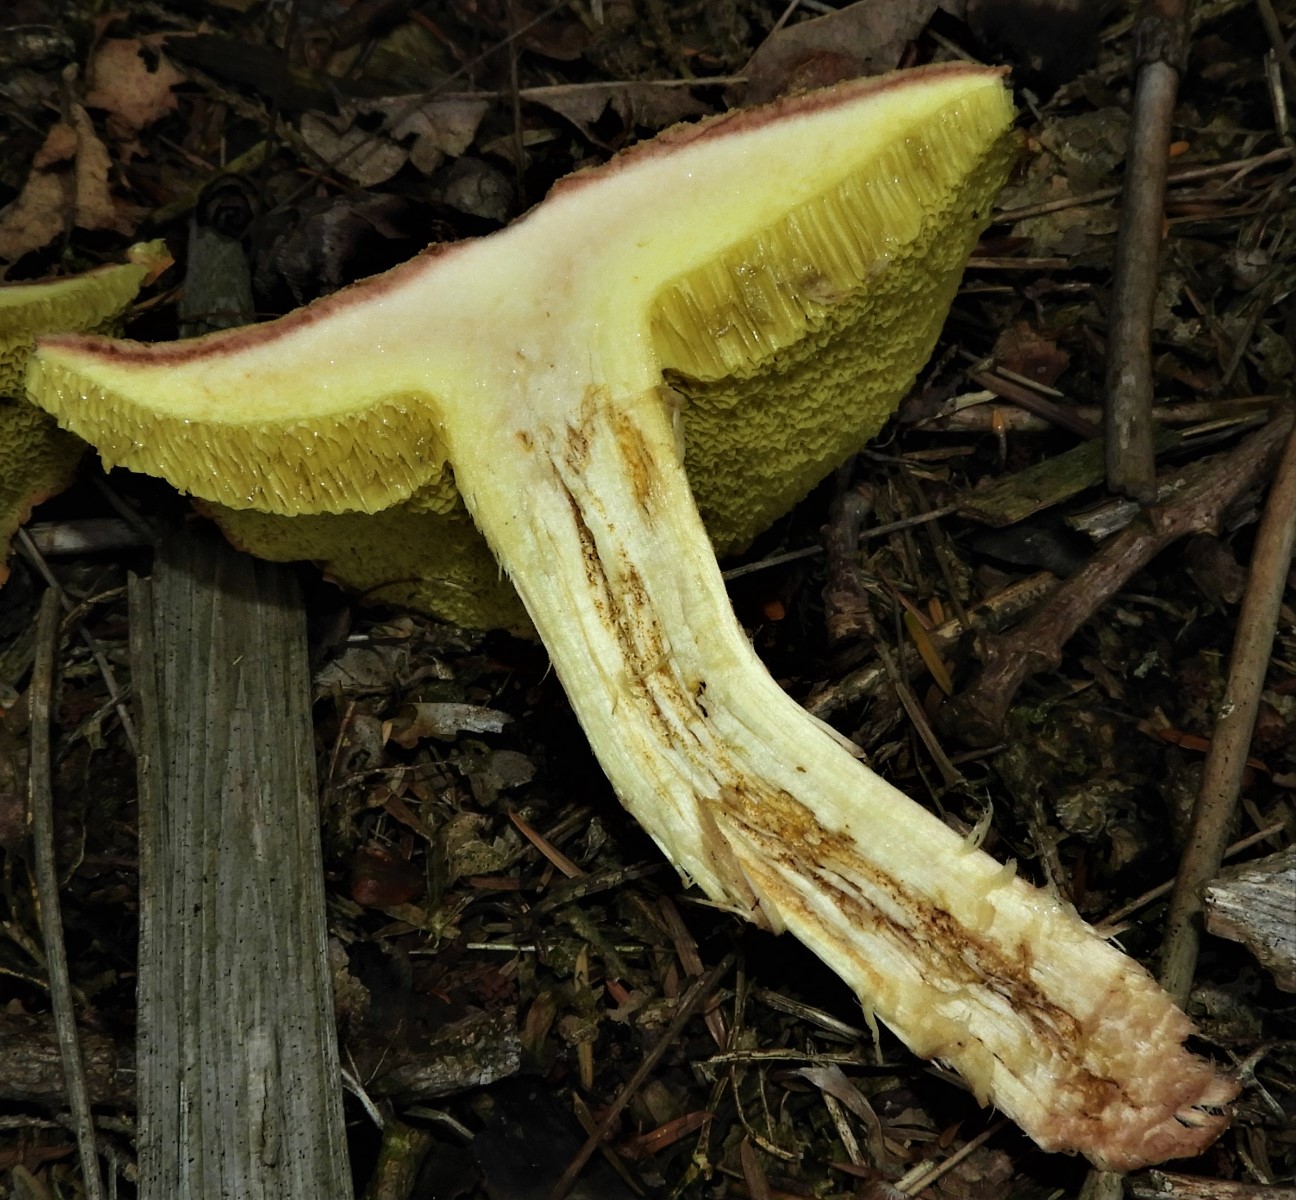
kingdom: Fungi
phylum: Basidiomycota
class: Agaricomycetes
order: Boletales
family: Boletaceae
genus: Xerocomus
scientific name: Xerocomus subtomentosus
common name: filtet rørhat
